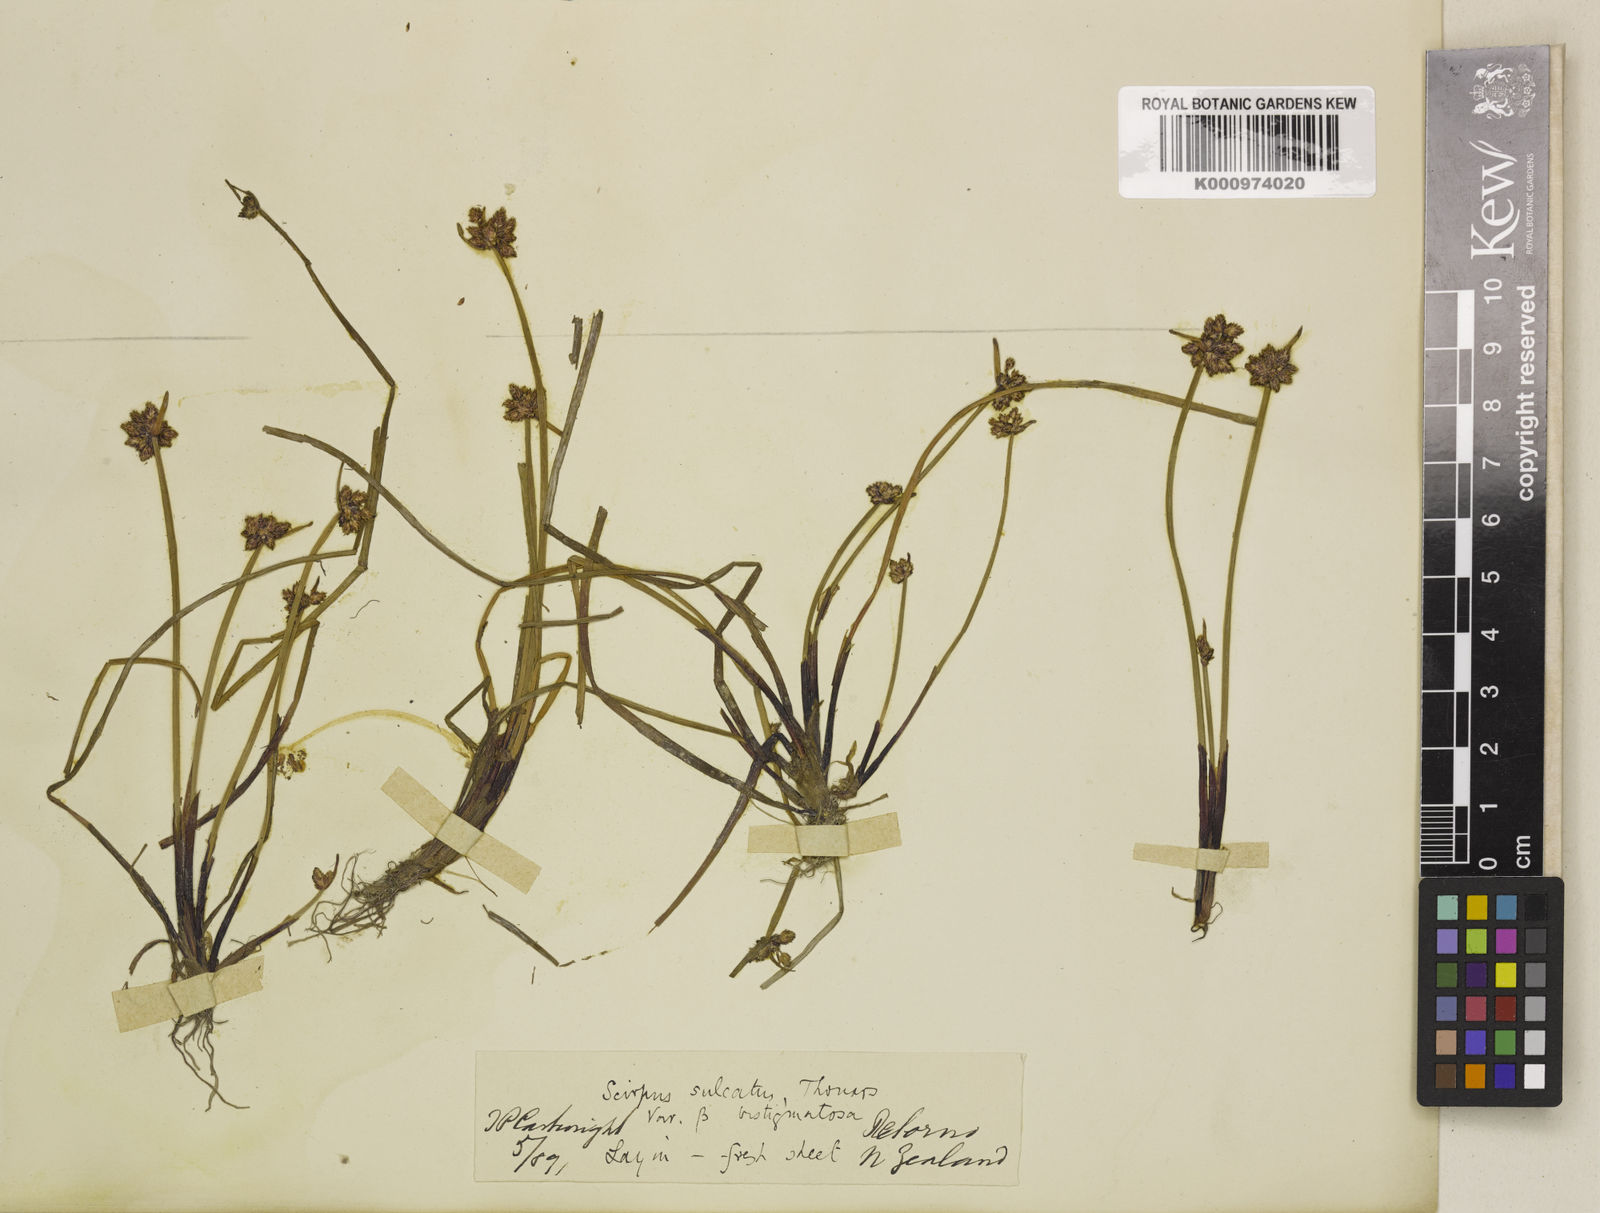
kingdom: Plantae
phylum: Tracheophyta
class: Liliopsida
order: Poales
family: Cyperaceae
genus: Isolepis
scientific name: Isolepis distigmatosa
